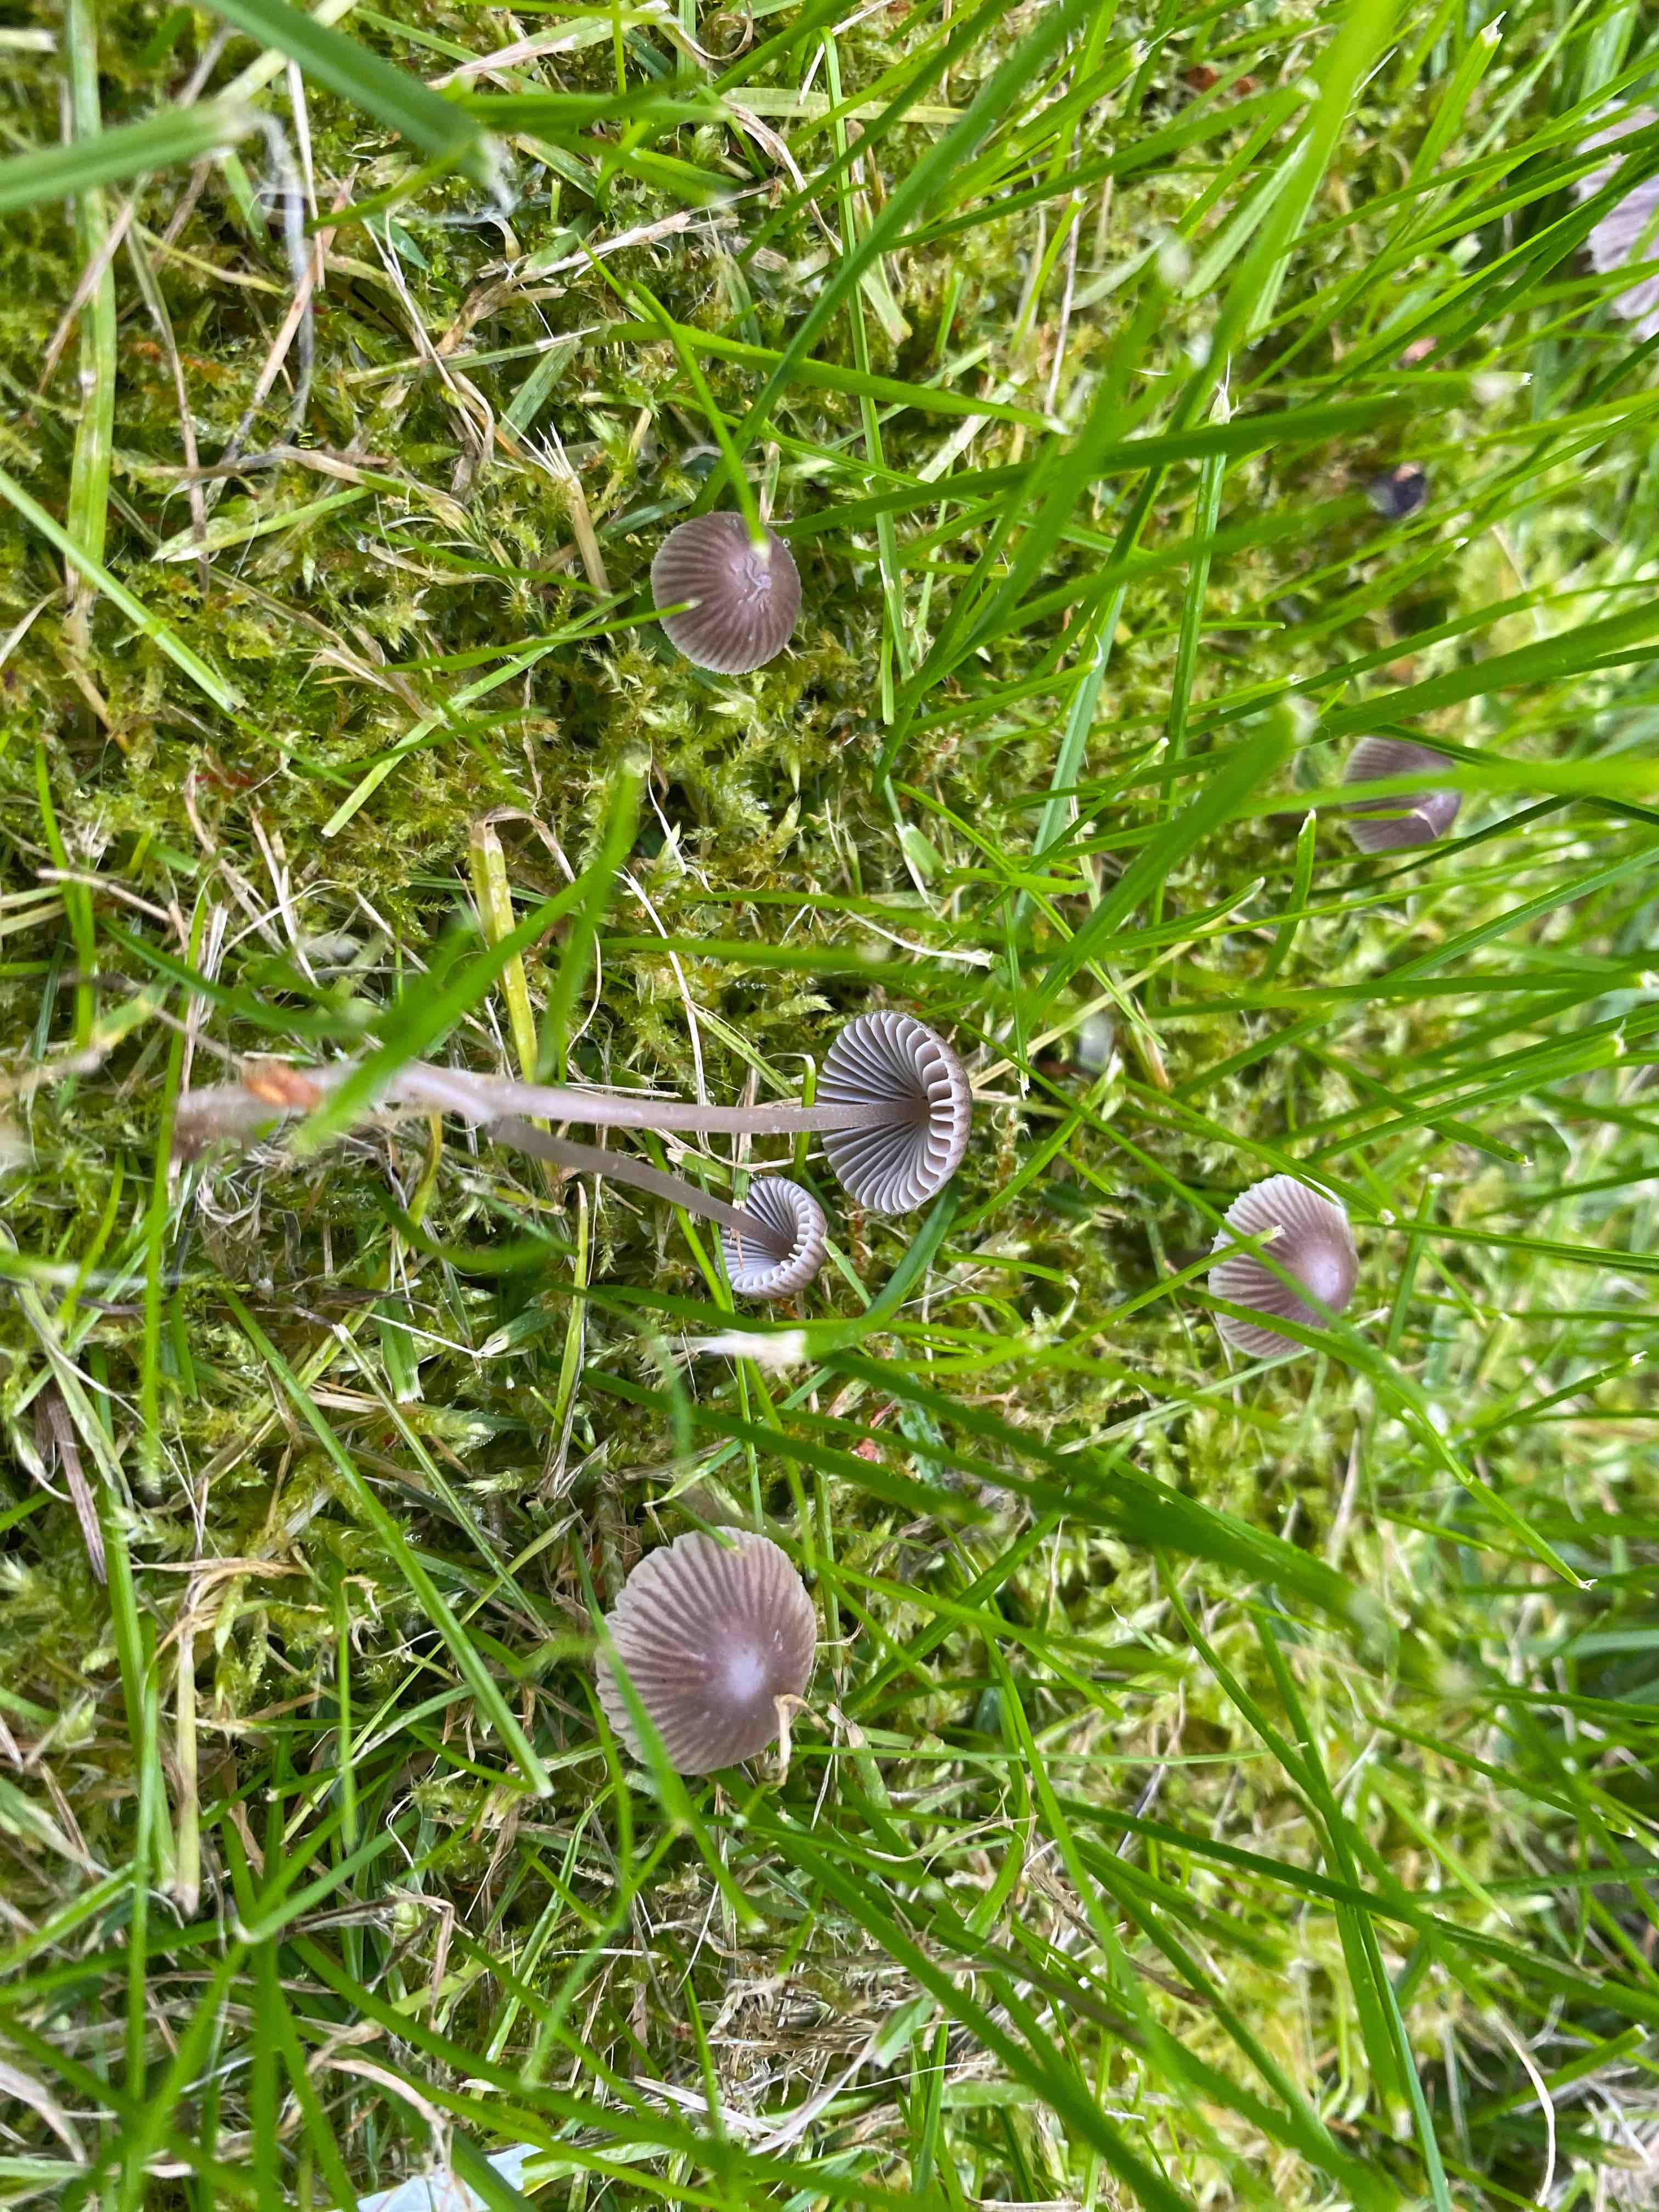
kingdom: Fungi
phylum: Basidiomycota
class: Agaricomycetes
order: Agaricales
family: Mycenaceae
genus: Mycena
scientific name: Mycena aetites
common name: plæne-huesvamp
